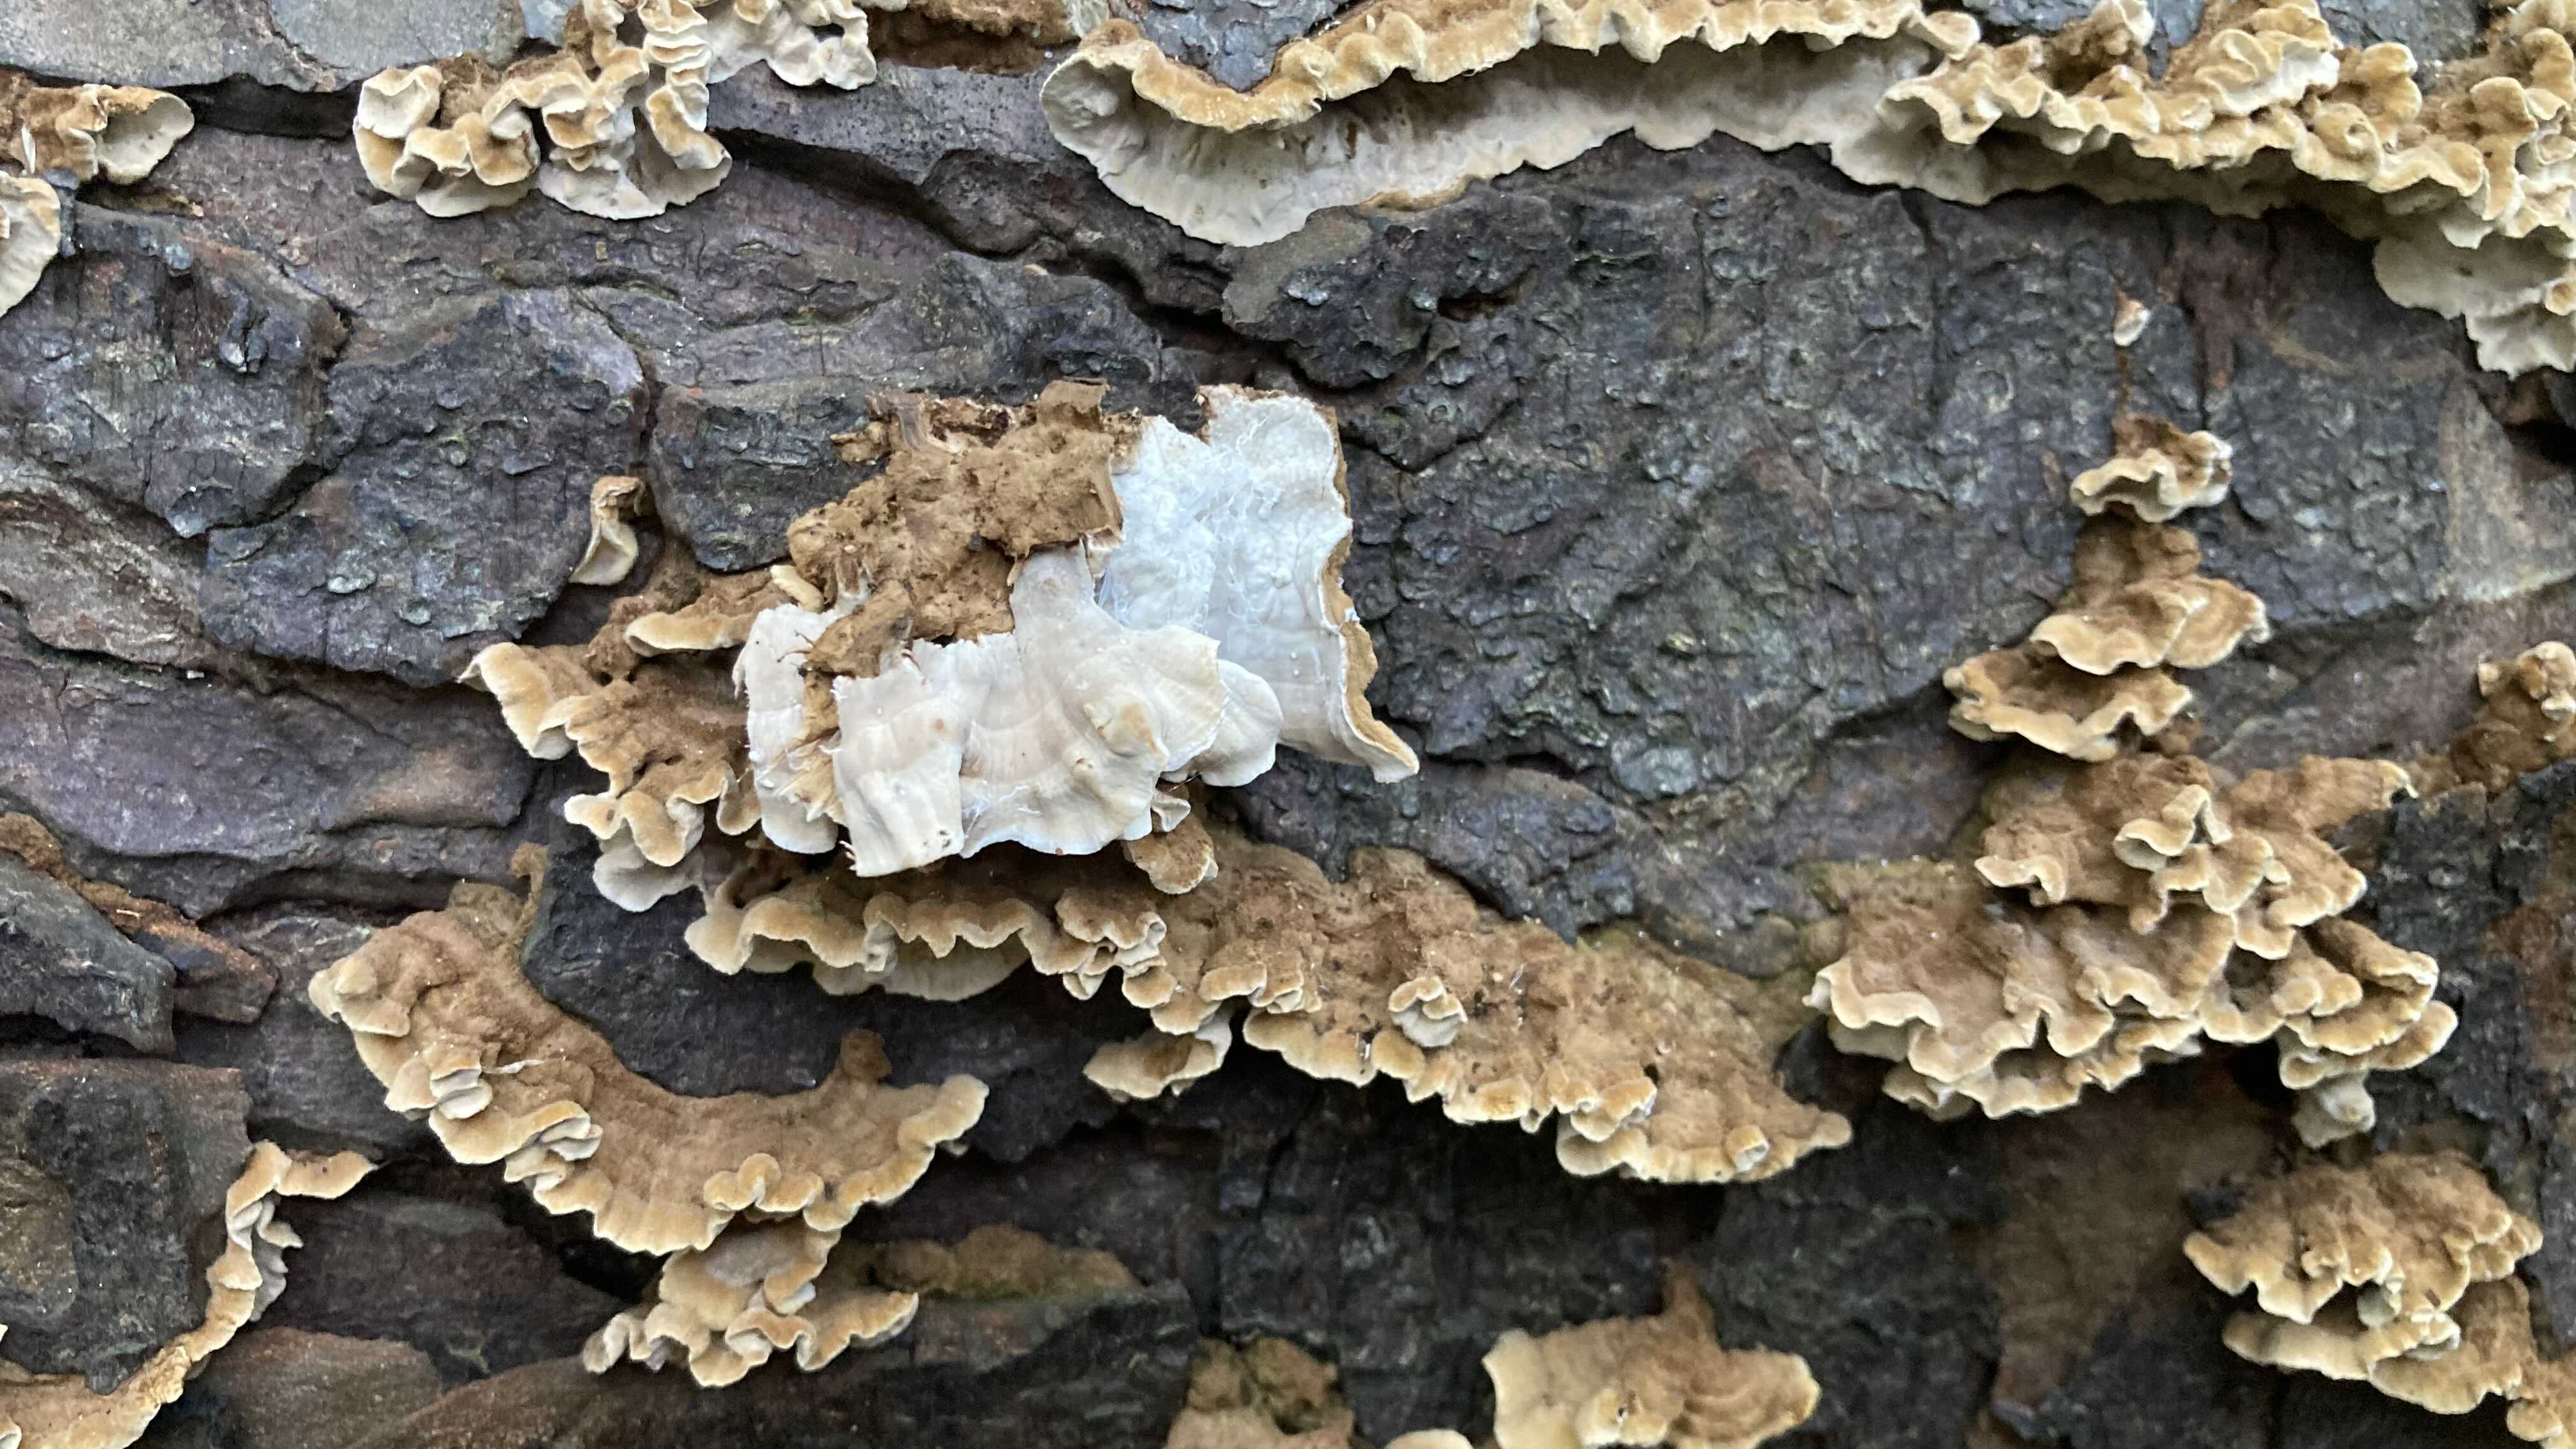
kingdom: Fungi
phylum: Basidiomycota
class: Agaricomycetes
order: Russulales
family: Hericiaceae
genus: Laxitextum
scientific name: Laxitextum bicolor
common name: tvefarvet filtskind
